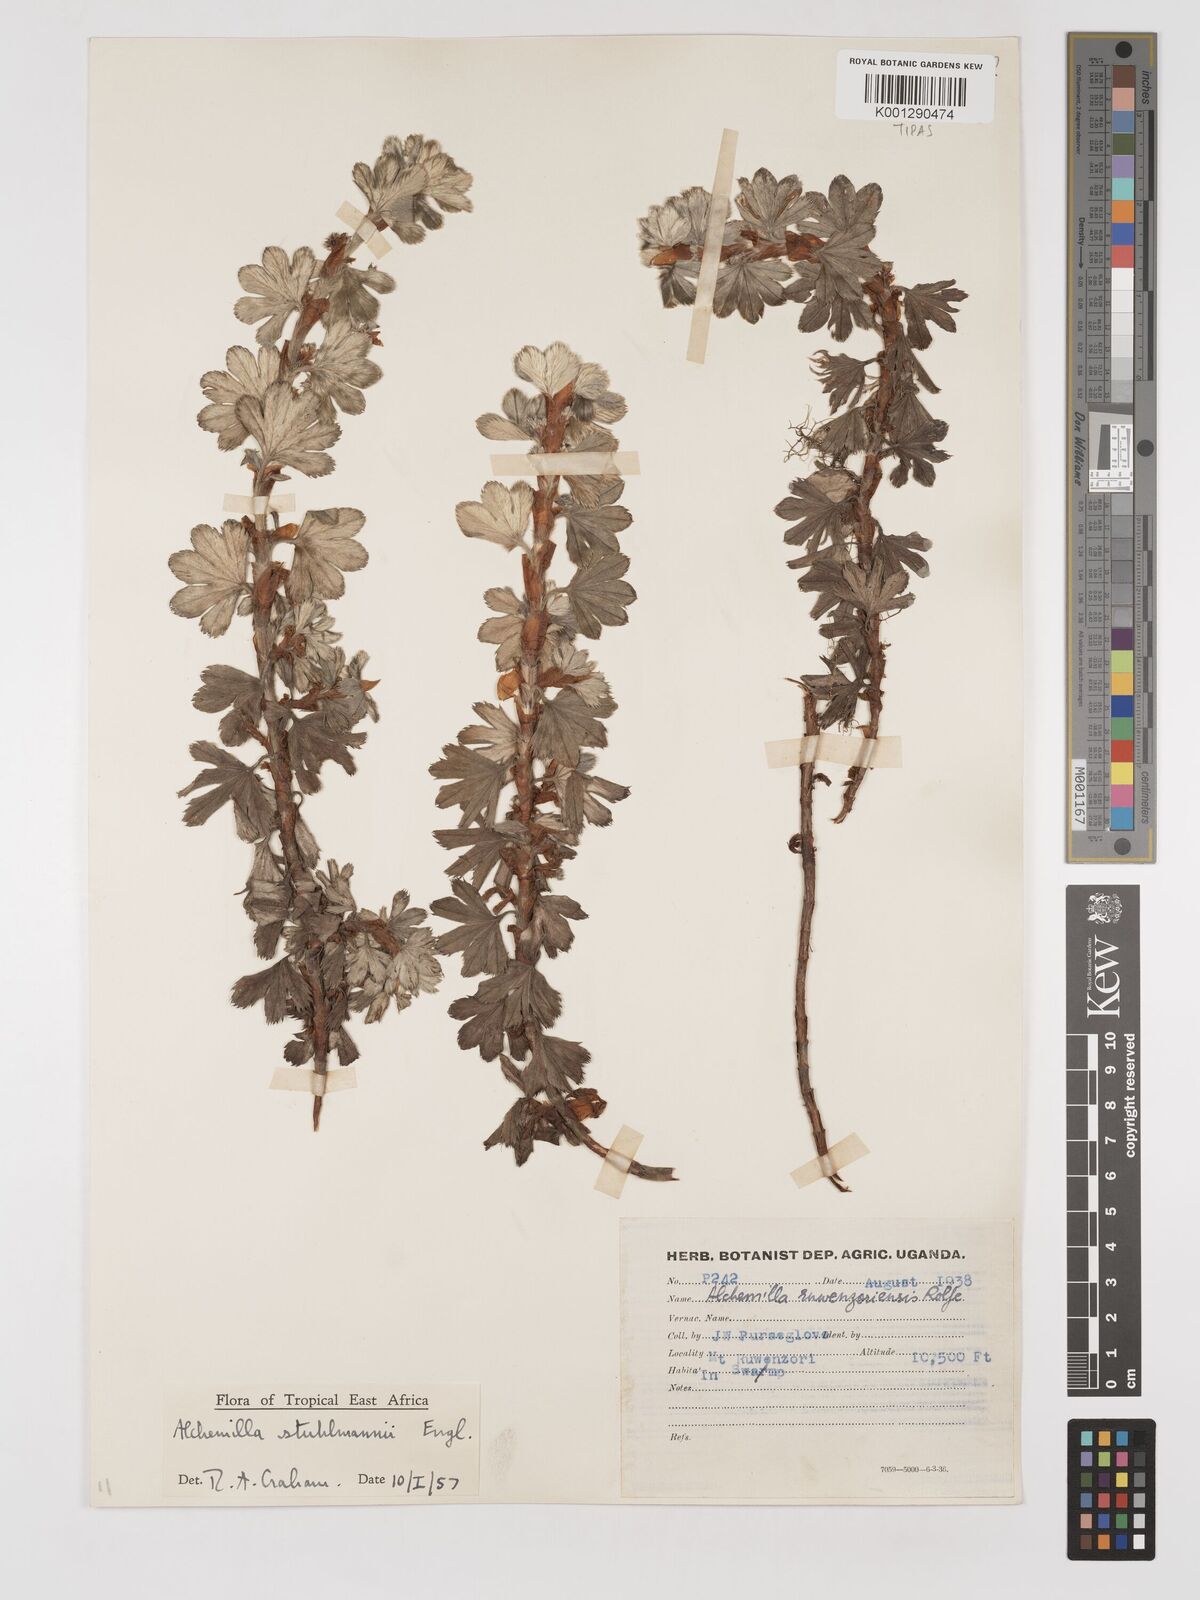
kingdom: Plantae
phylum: Tracheophyta
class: Magnoliopsida
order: Rosales
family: Rosaceae
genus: Alchemilla
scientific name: Alchemilla stuhlmannii
